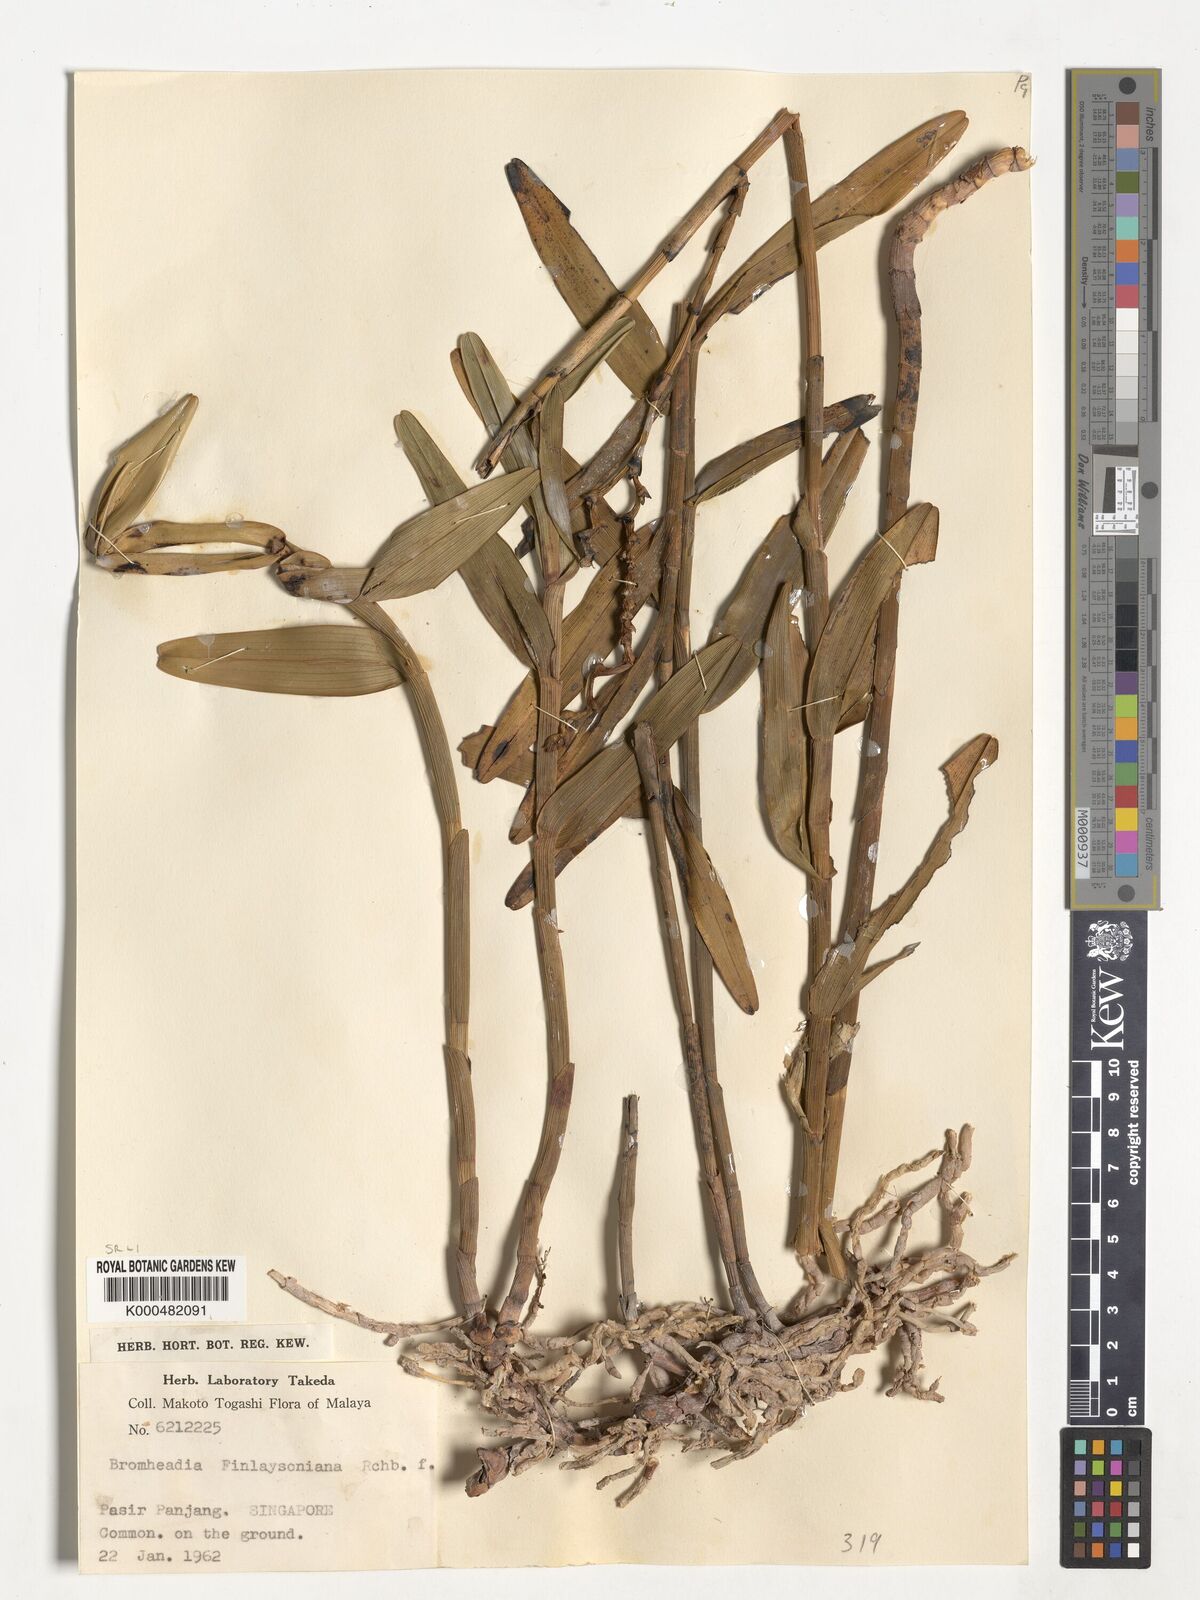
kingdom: Plantae
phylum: Tracheophyta
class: Liliopsida
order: Asparagales
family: Orchidaceae
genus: Bromheadia
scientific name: Bromheadia finlaysoniana
